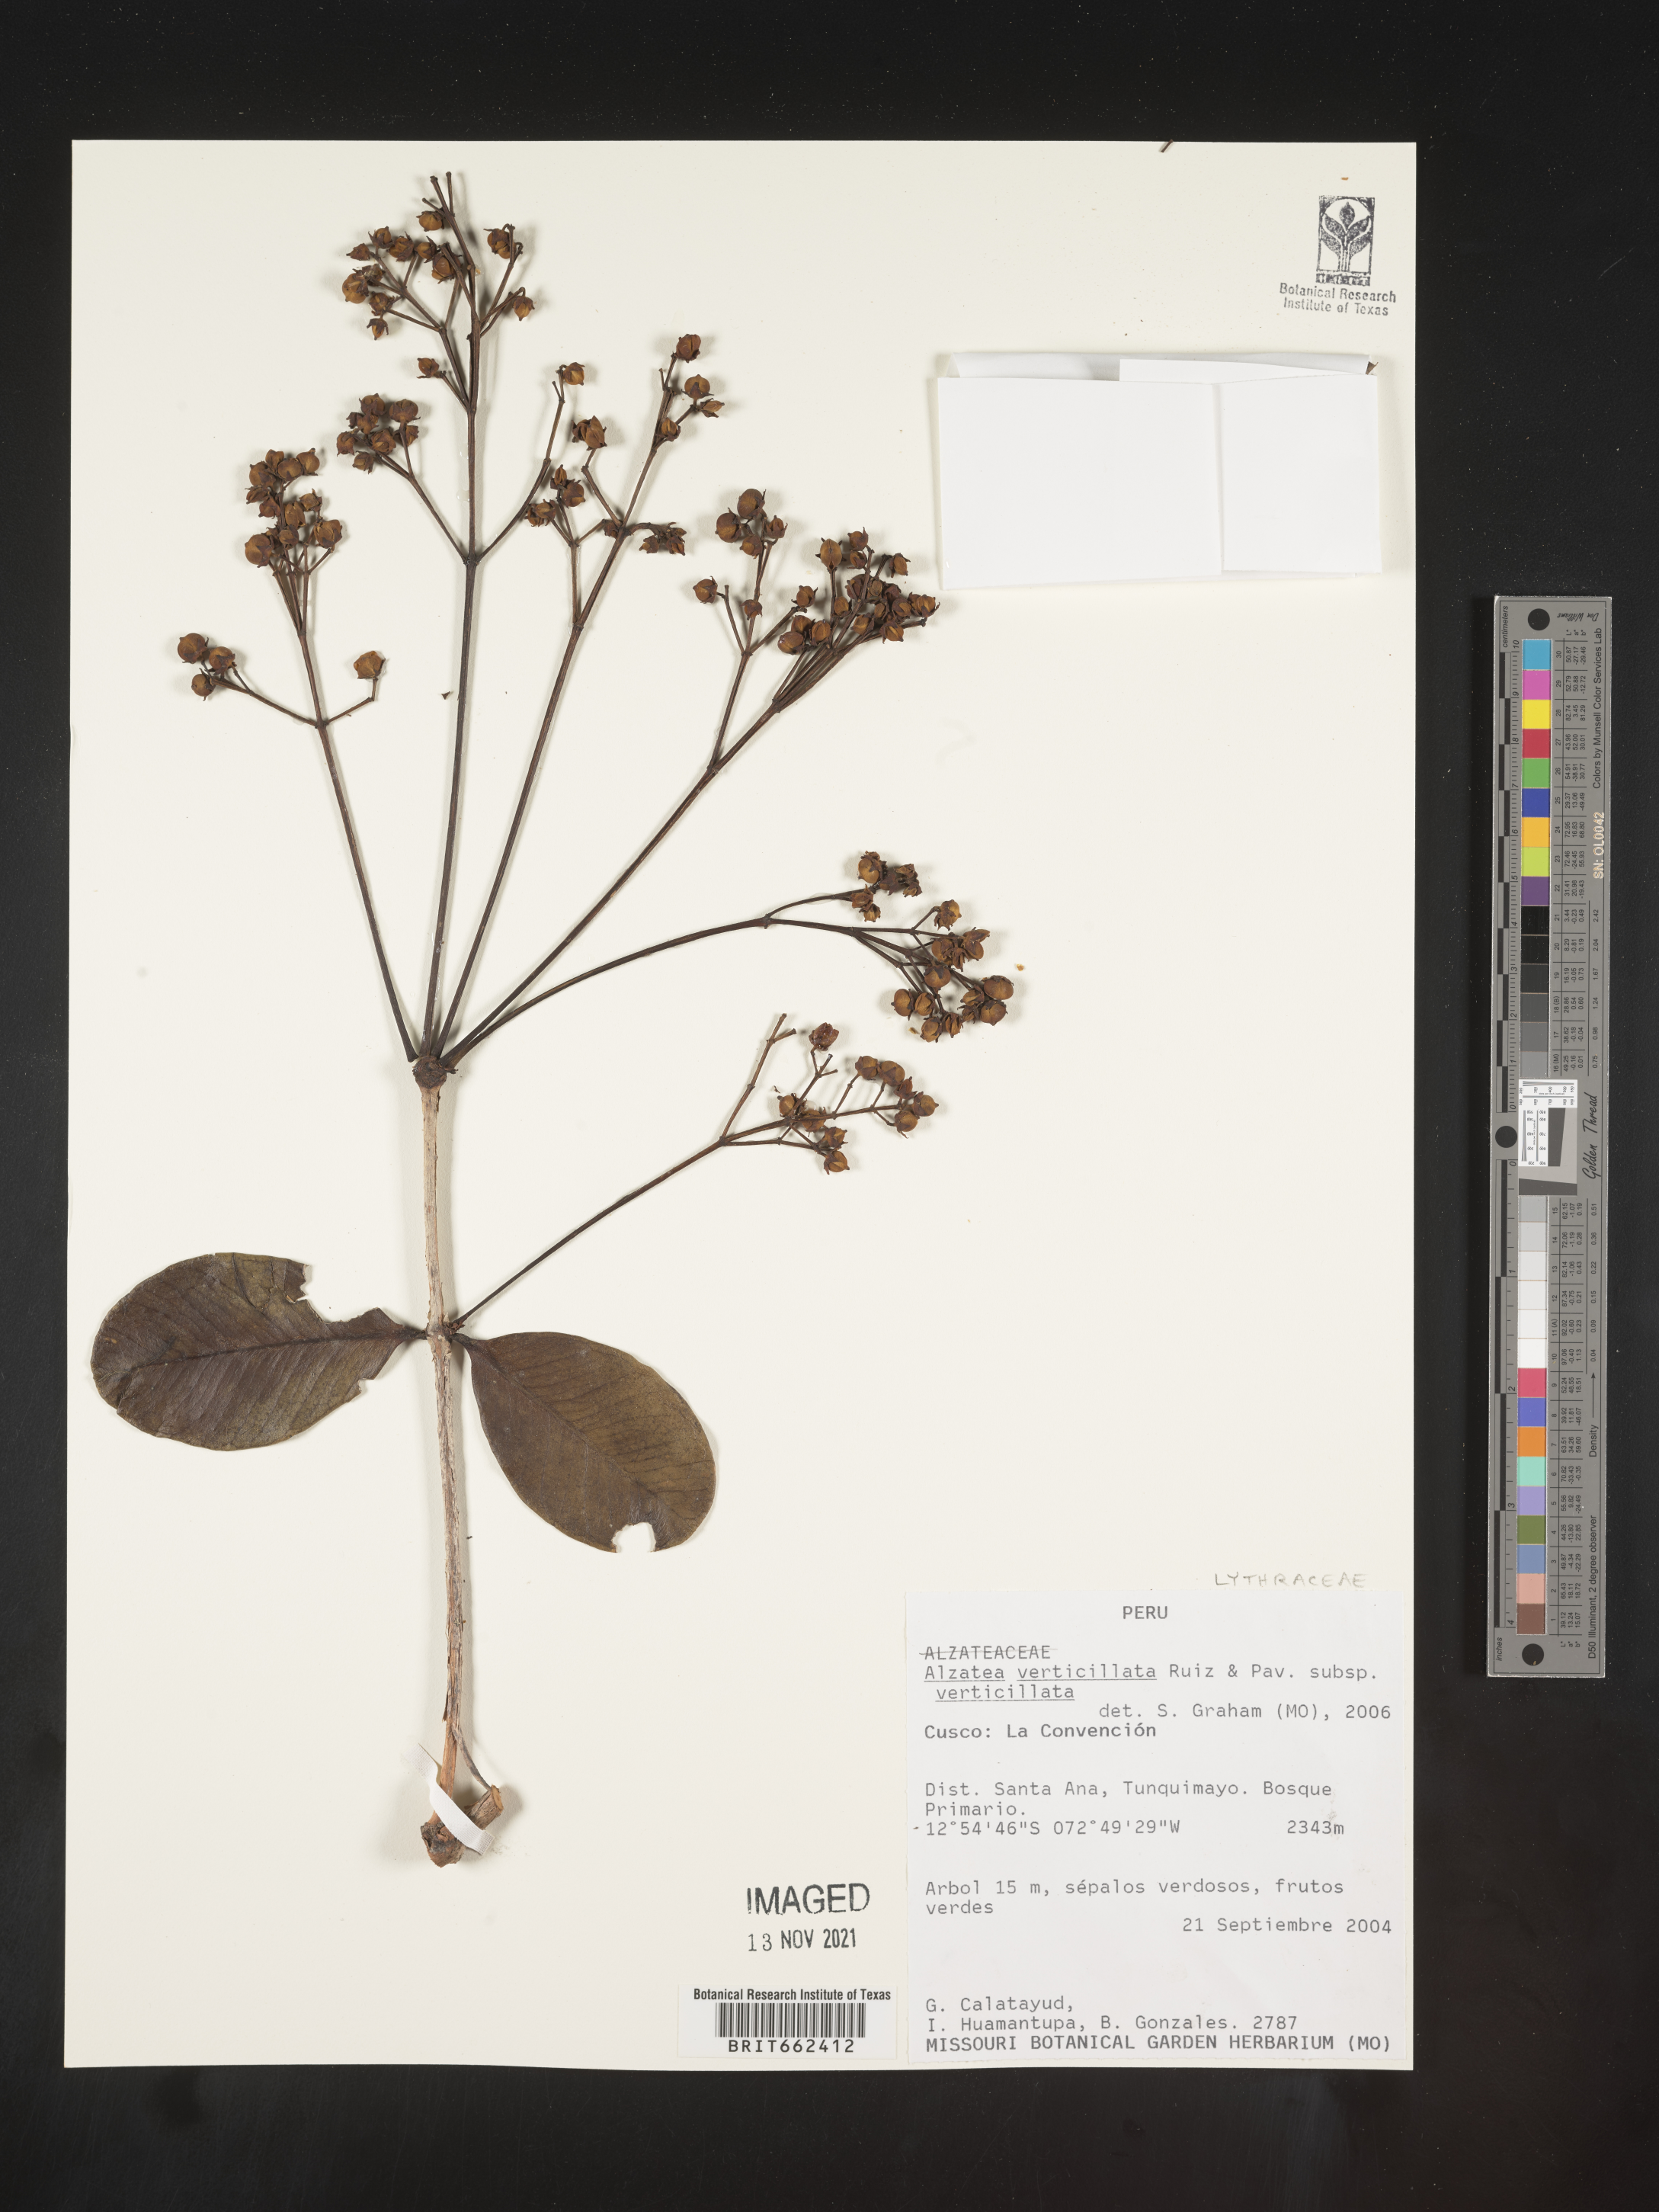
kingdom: Plantae
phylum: Tracheophyta
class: Magnoliopsida
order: Myrtales
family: Alzateaceae
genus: Alzatea
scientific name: Alzatea
